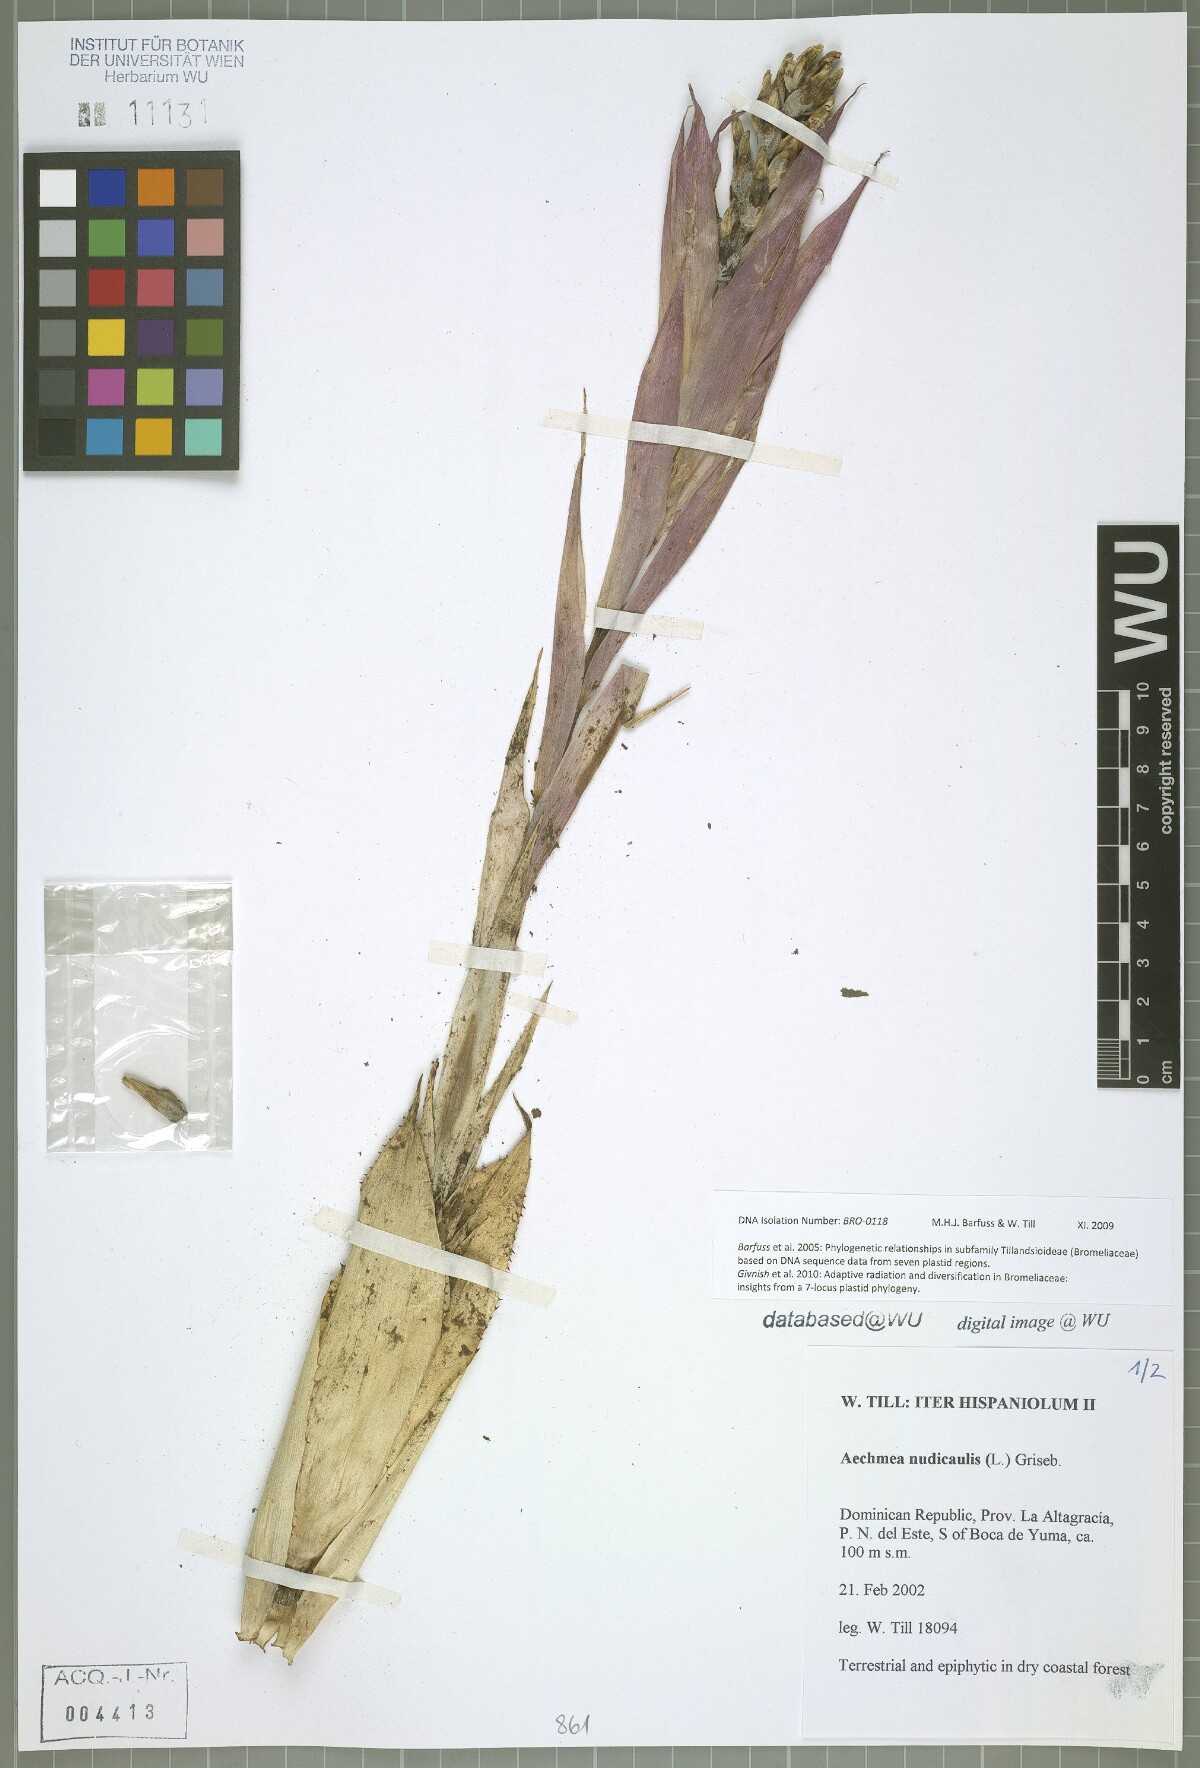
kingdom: Plantae
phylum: Tracheophyta
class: Liliopsida
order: Poales
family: Bromeliaceae
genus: Aechmea
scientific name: Aechmea nudicaulis
